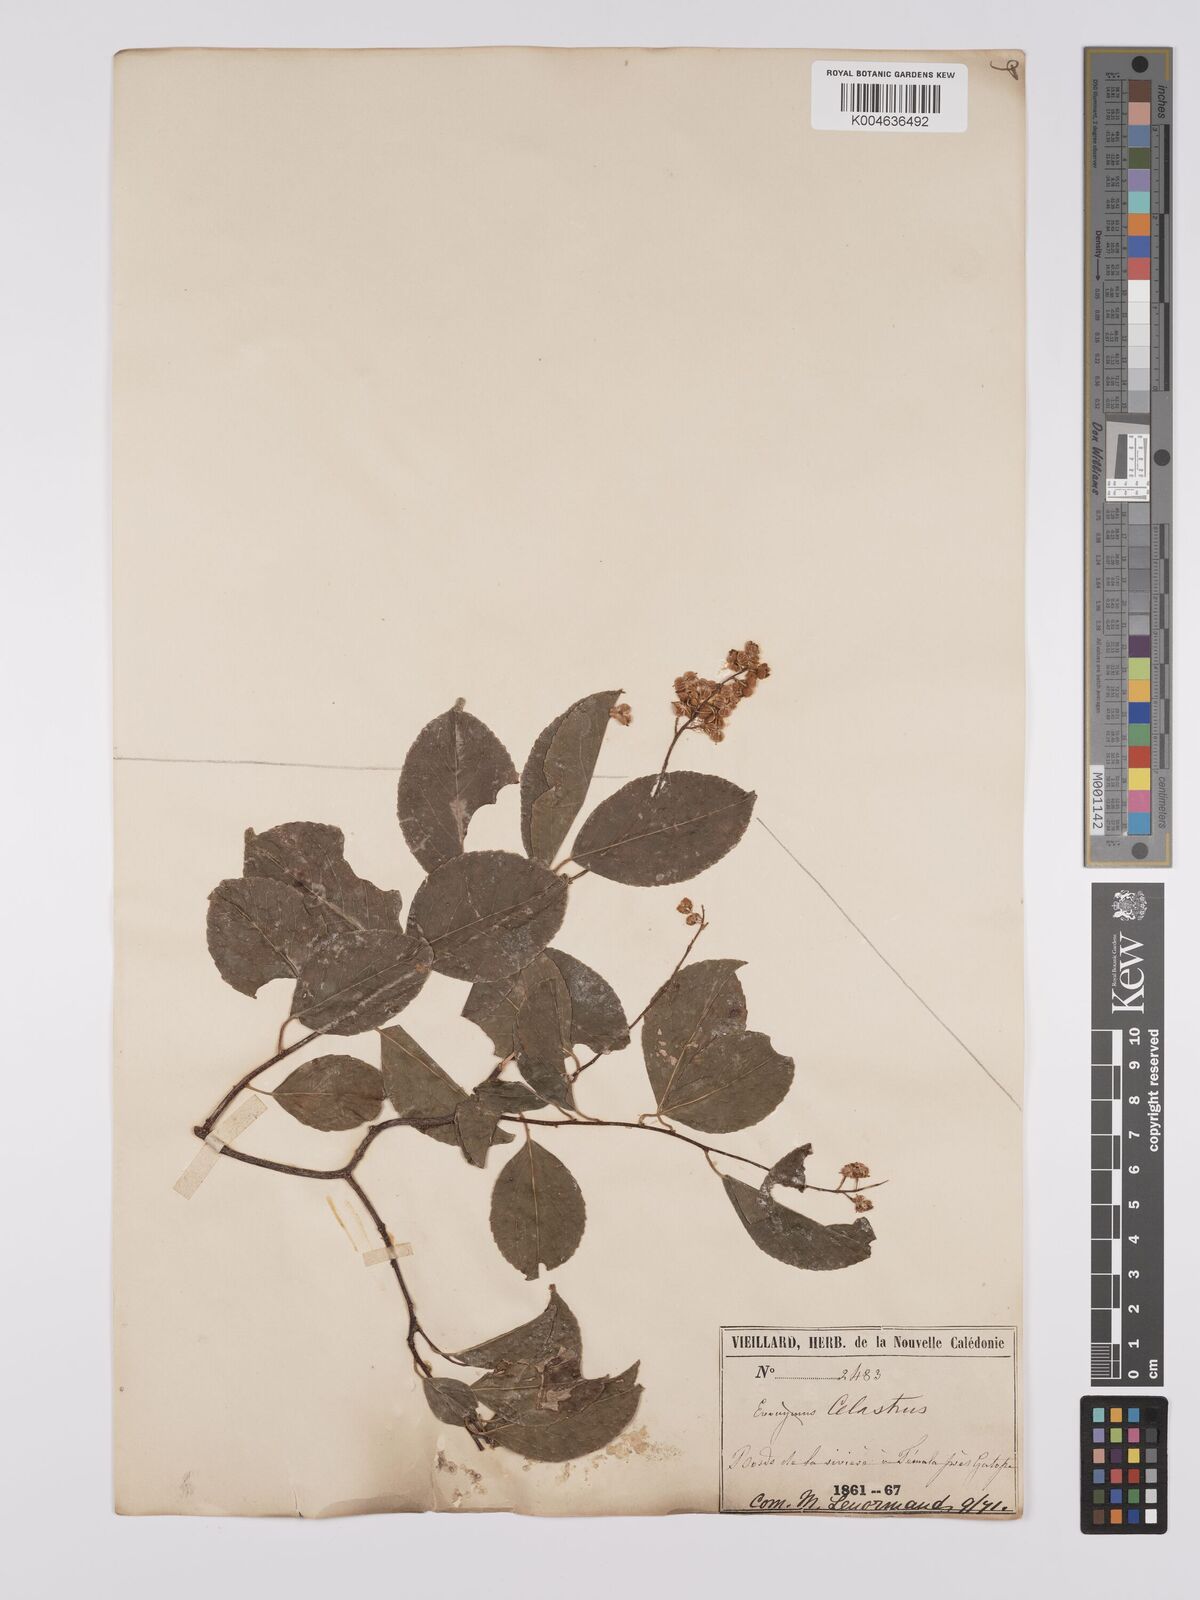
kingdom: Plantae
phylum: Tracheophyta
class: Magnoliopsida
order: Celastrales
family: Celastraceae
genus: Celastrus
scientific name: Celastrus paniculatus
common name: Oriental bittersweet; staff vine
